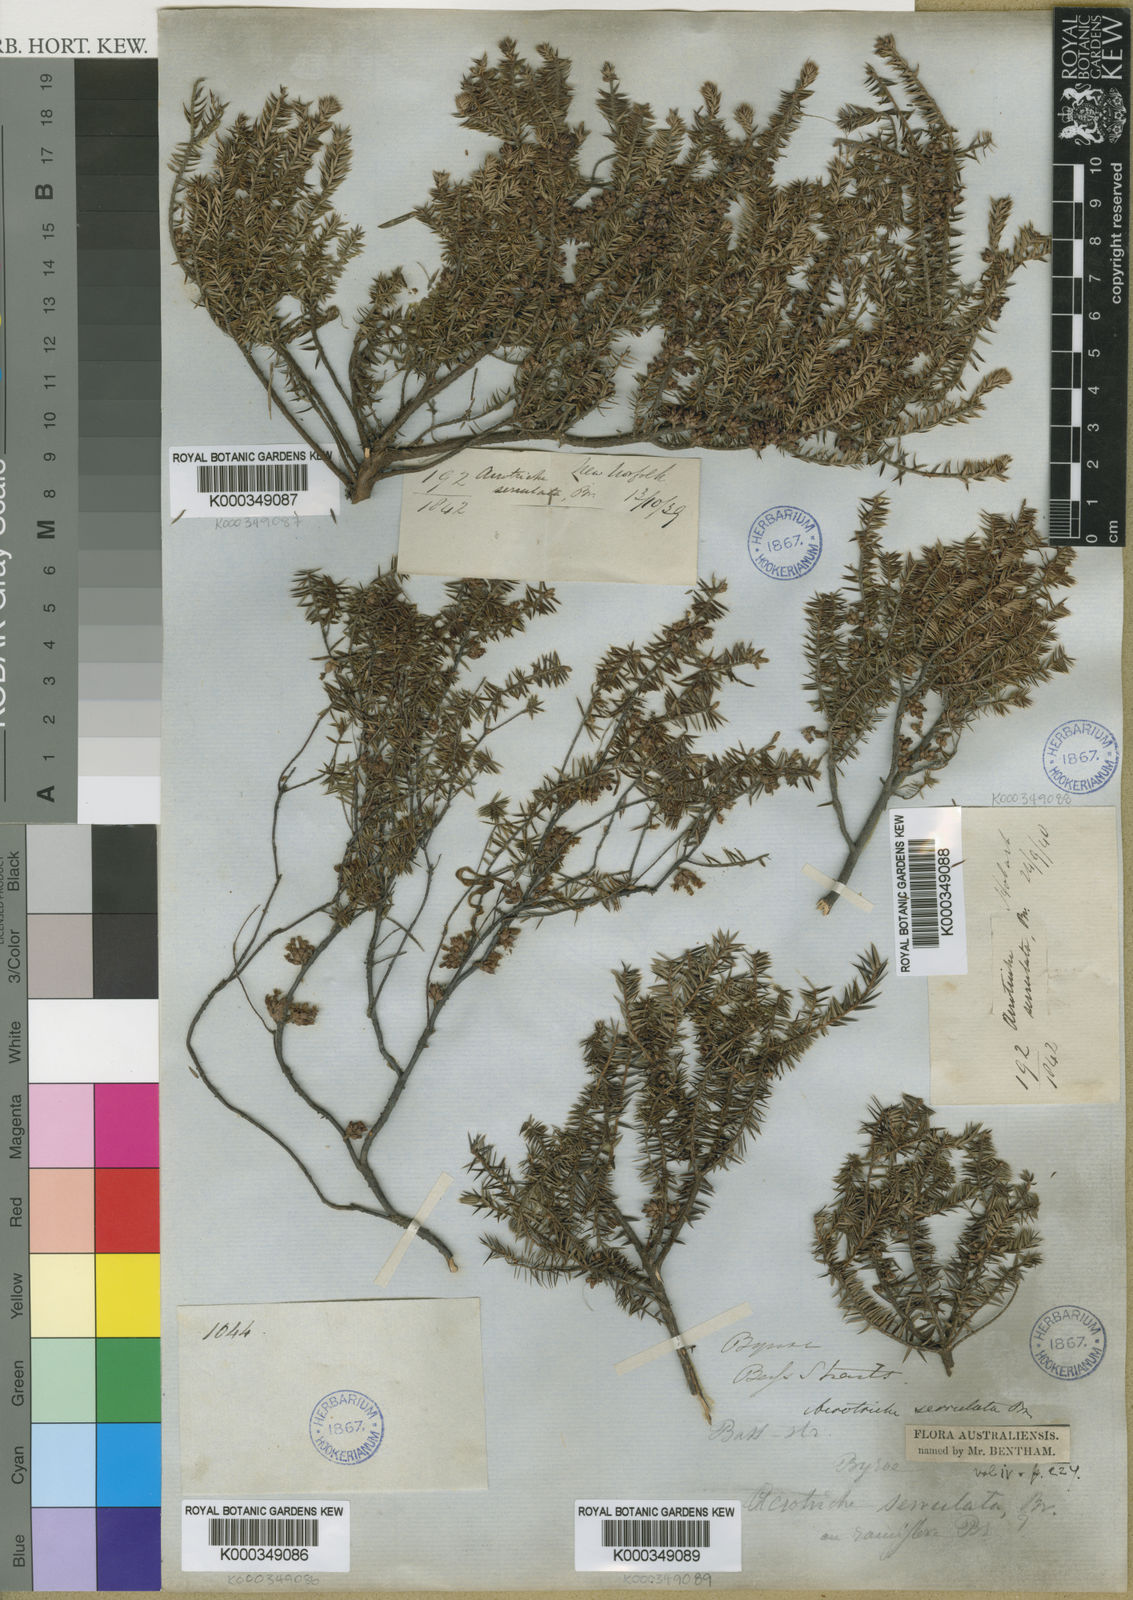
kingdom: Plantae
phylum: Tracheophyta
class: Magnoliopsida
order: Ericales
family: Ericaceae
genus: Acrotriche
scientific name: Acrotriche serrulata
